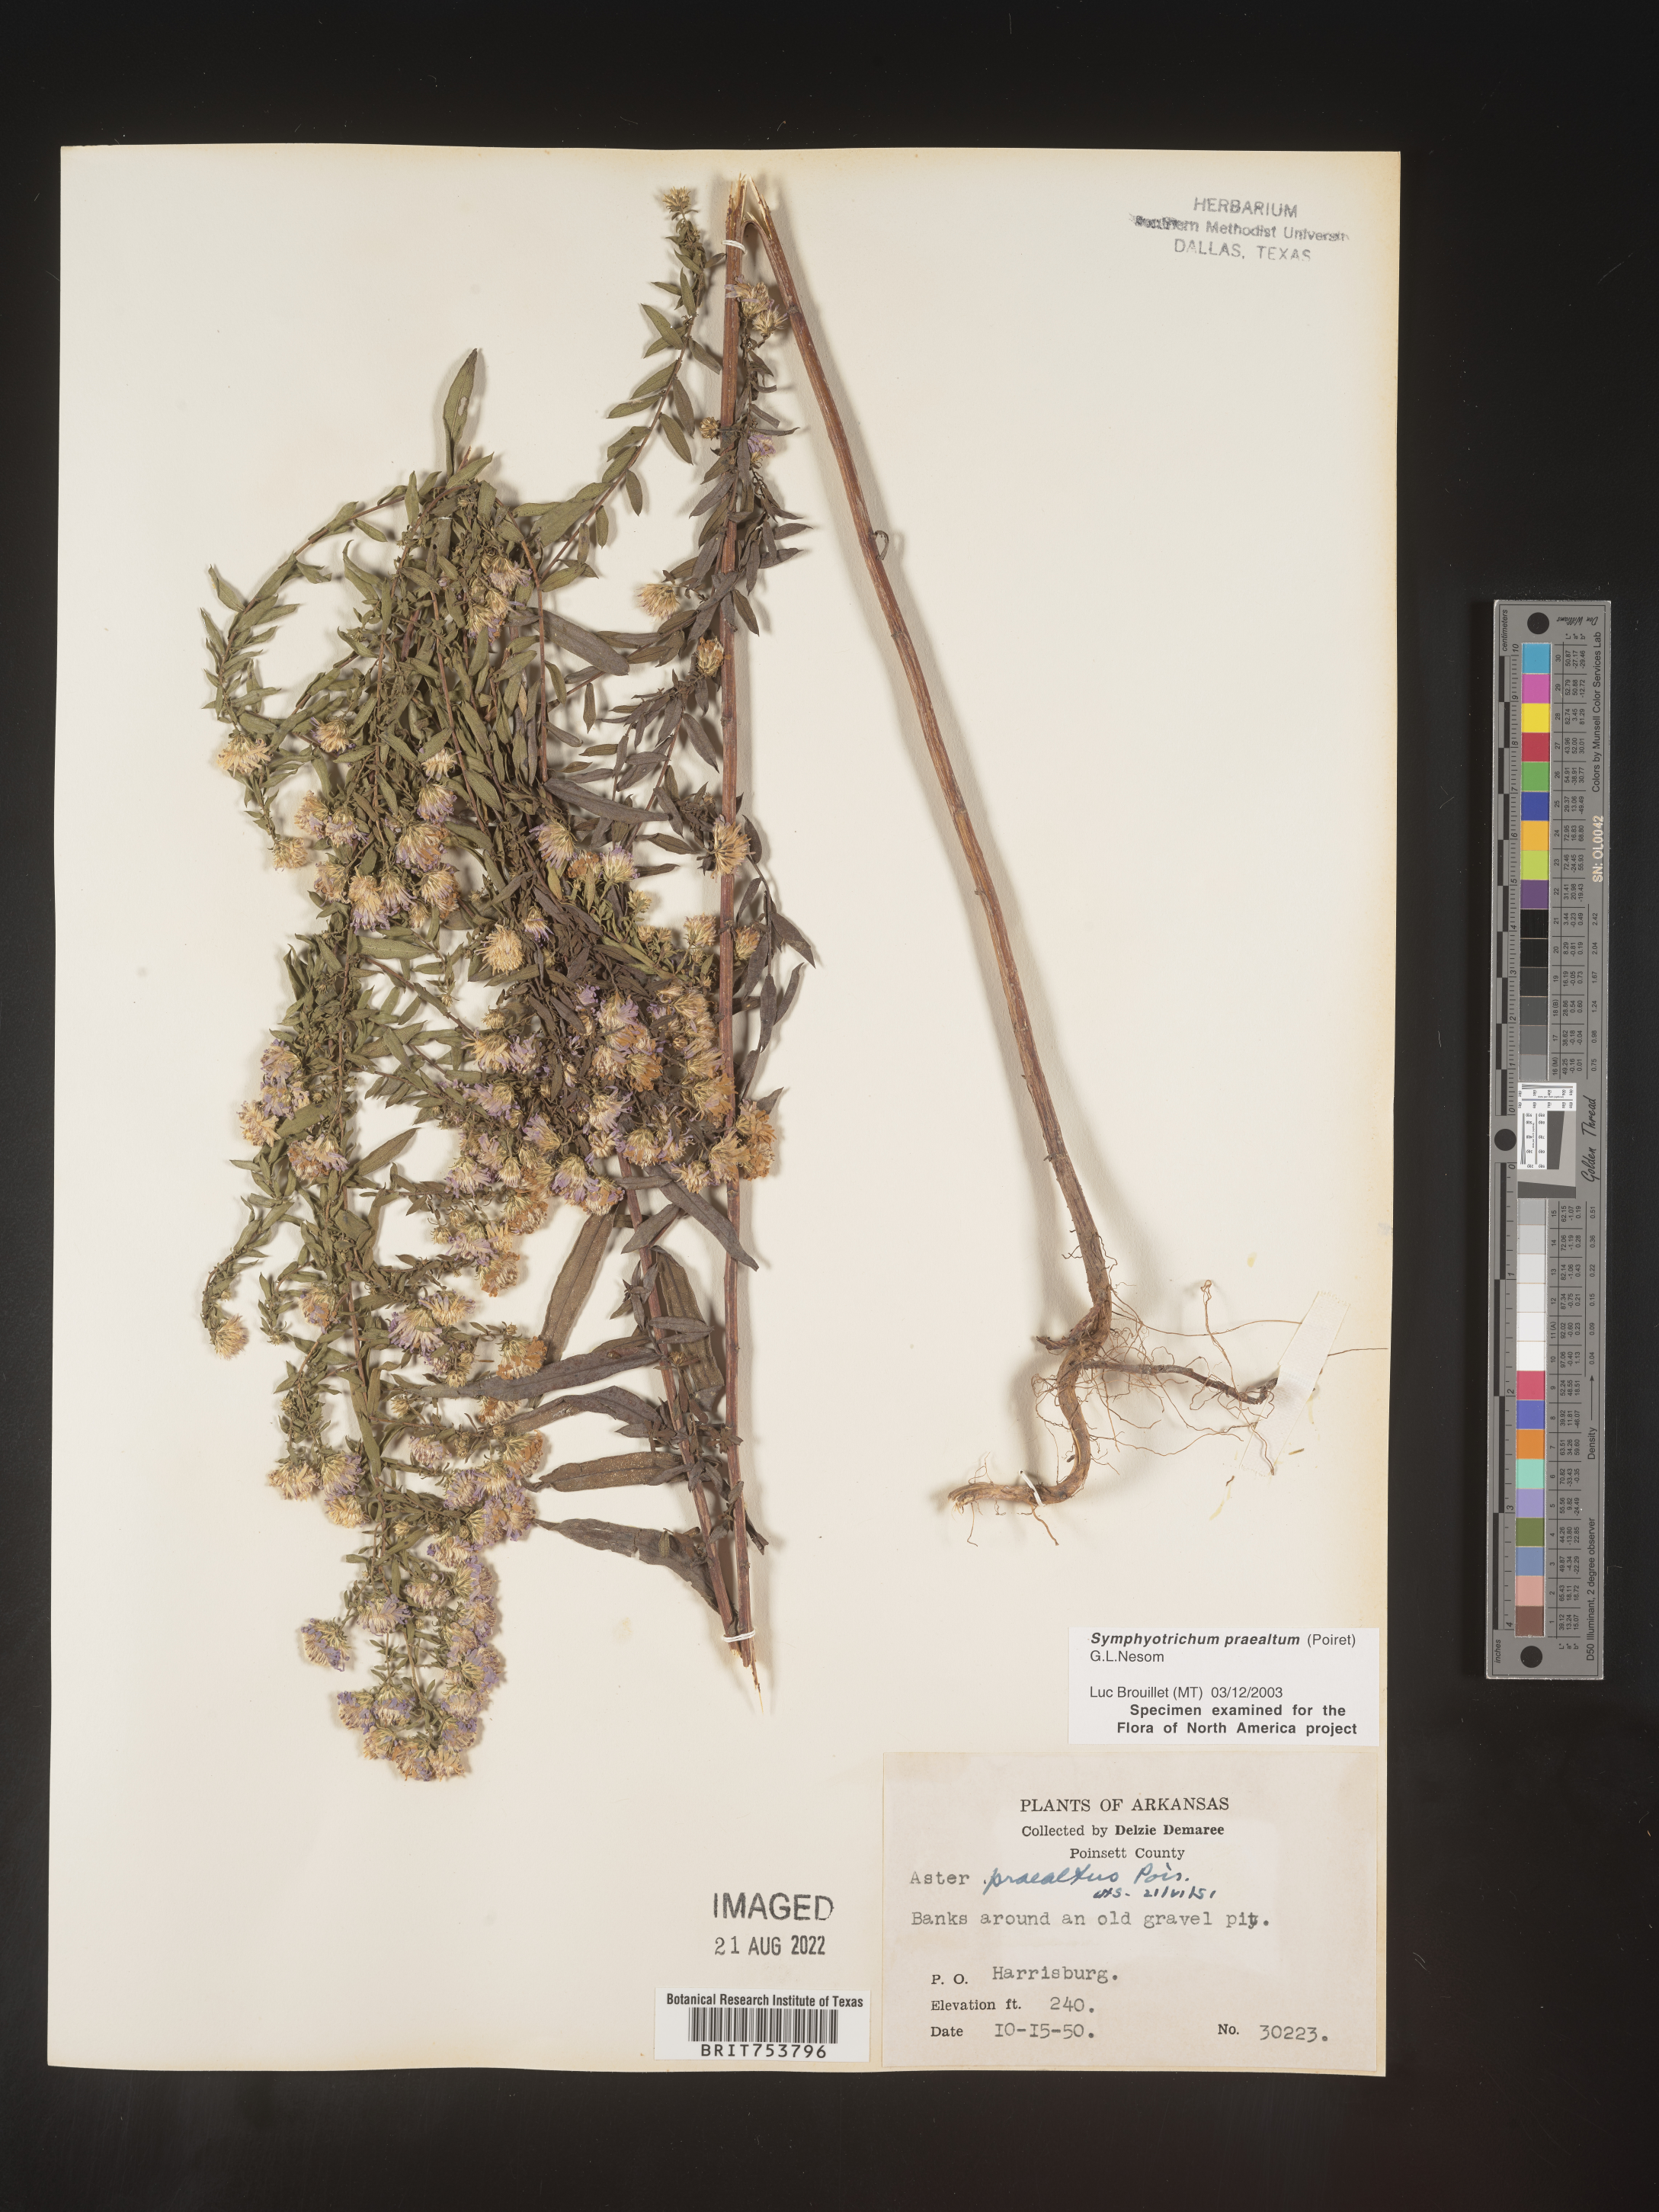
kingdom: Plantae
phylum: Tracheophyta
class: Magnoliopsida
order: Asterales
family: Asteraceae
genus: Symphyotrichum
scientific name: Symphyotrichum praealtum
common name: Willow aster
